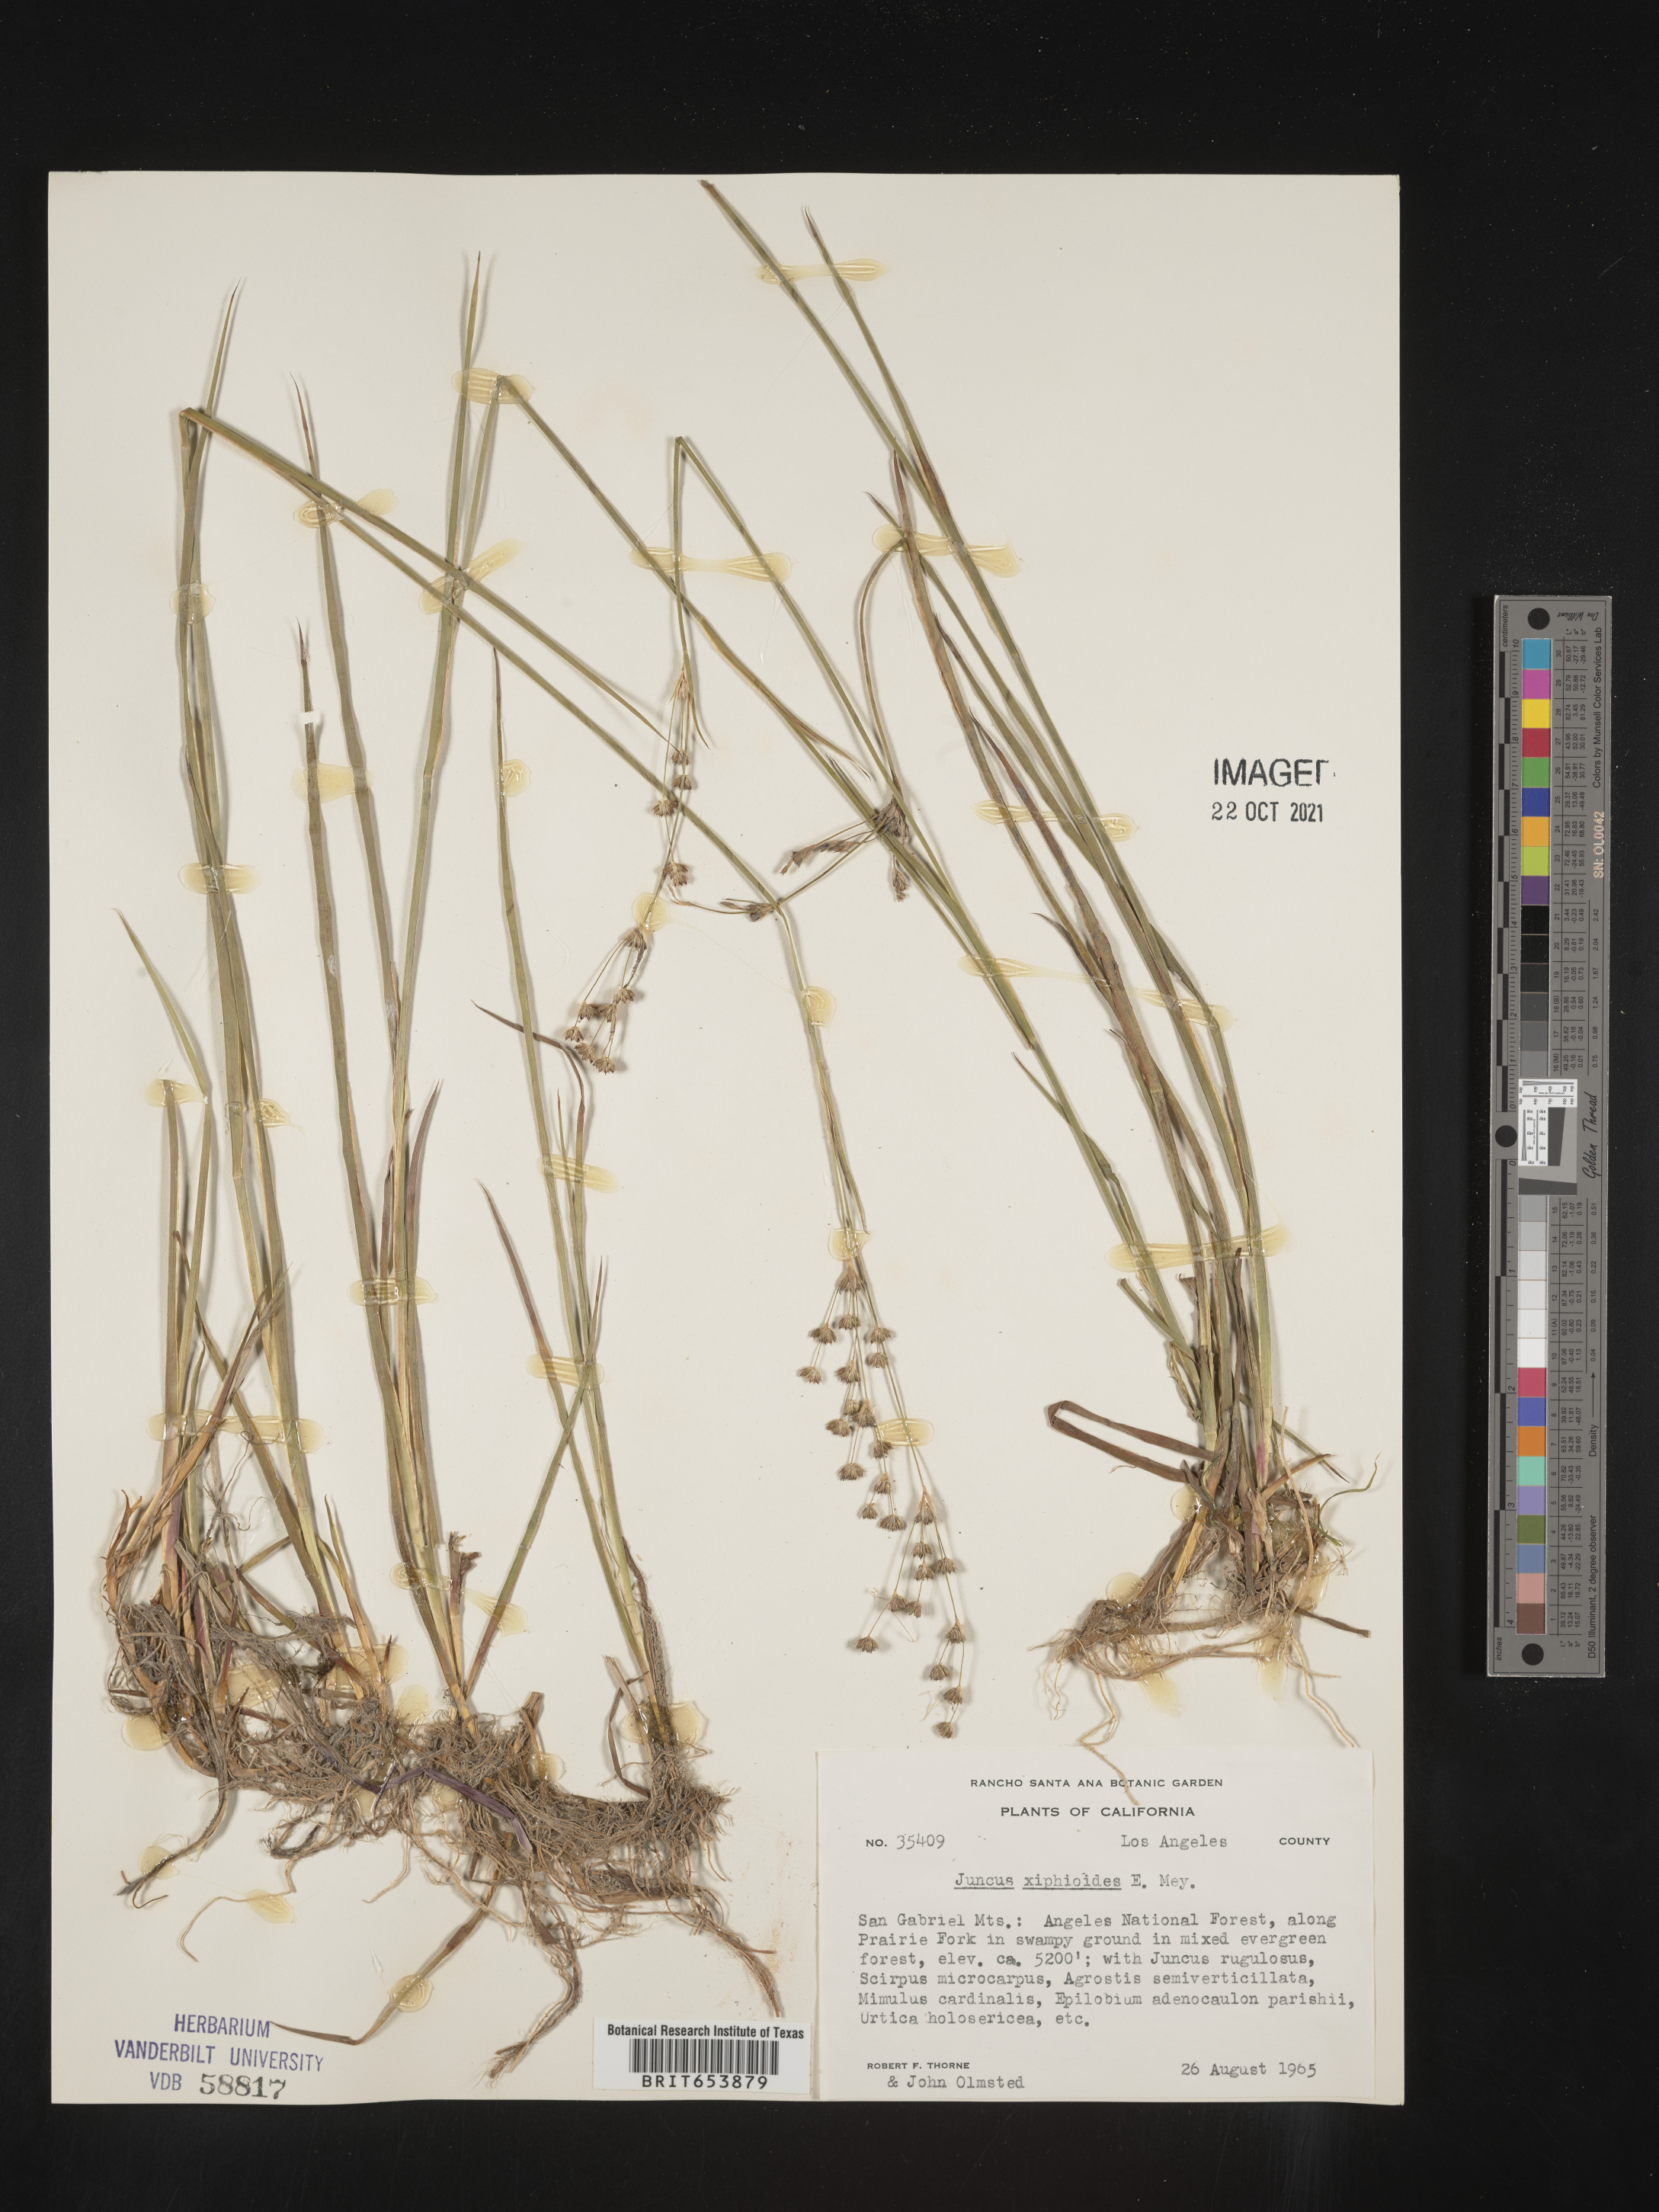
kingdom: Plantae
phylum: Tracheophyta
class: Liliopsida
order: Poales
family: Juncaceae
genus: Juncus
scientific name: Juncus xiphioides
